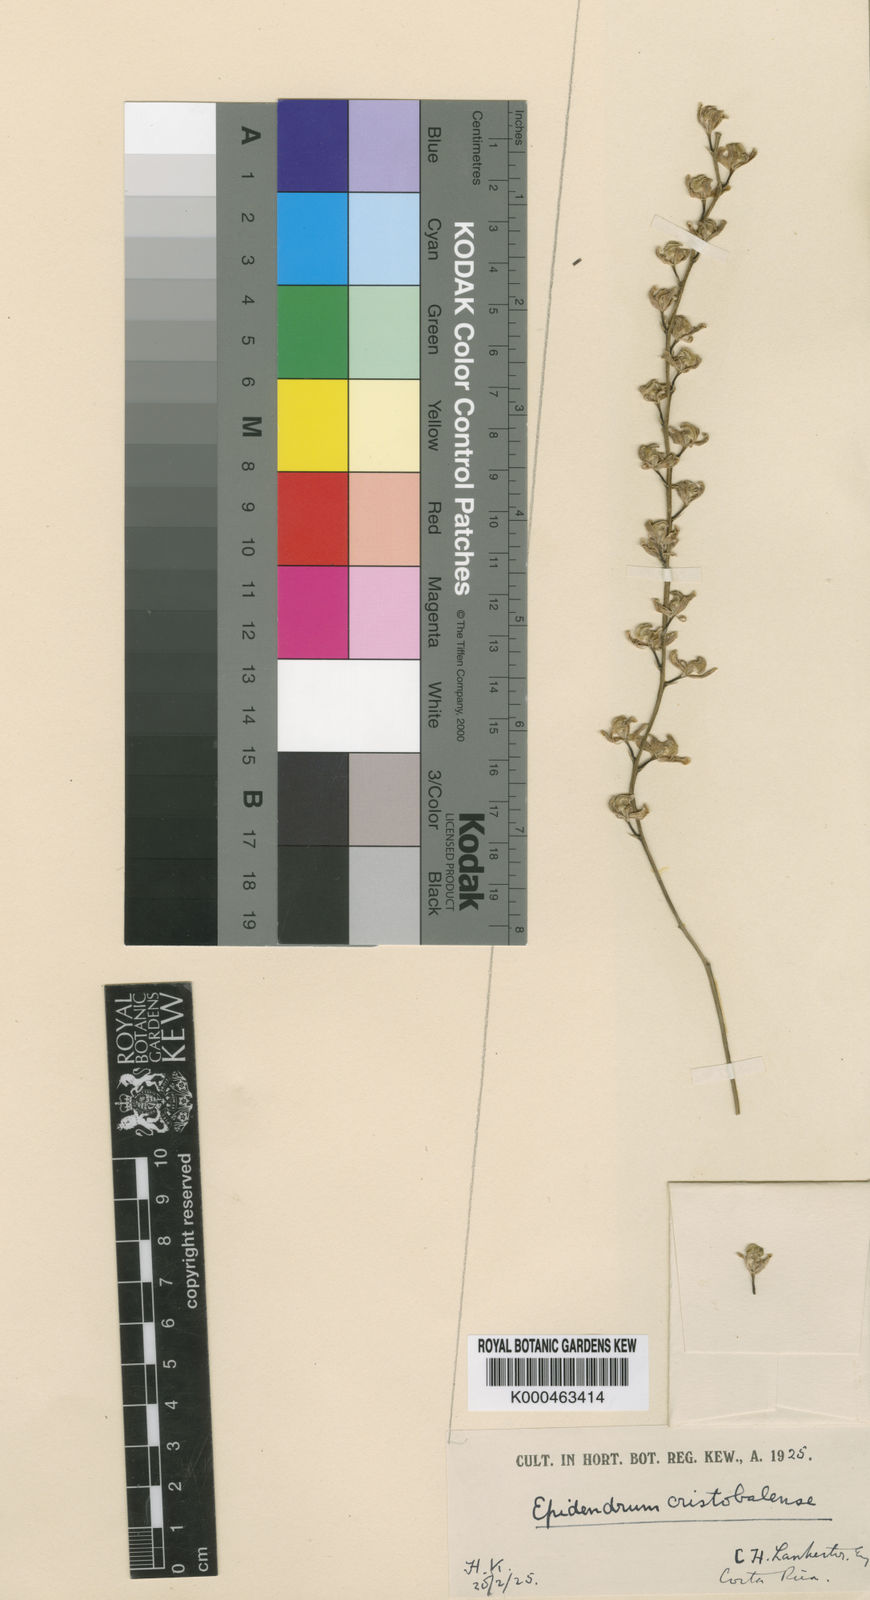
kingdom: Plantae
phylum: Tracheophyta
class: Liliopsida
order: Asparagales
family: Orchidaceae
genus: Epidendrum
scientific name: Epidendrum laucheanum
